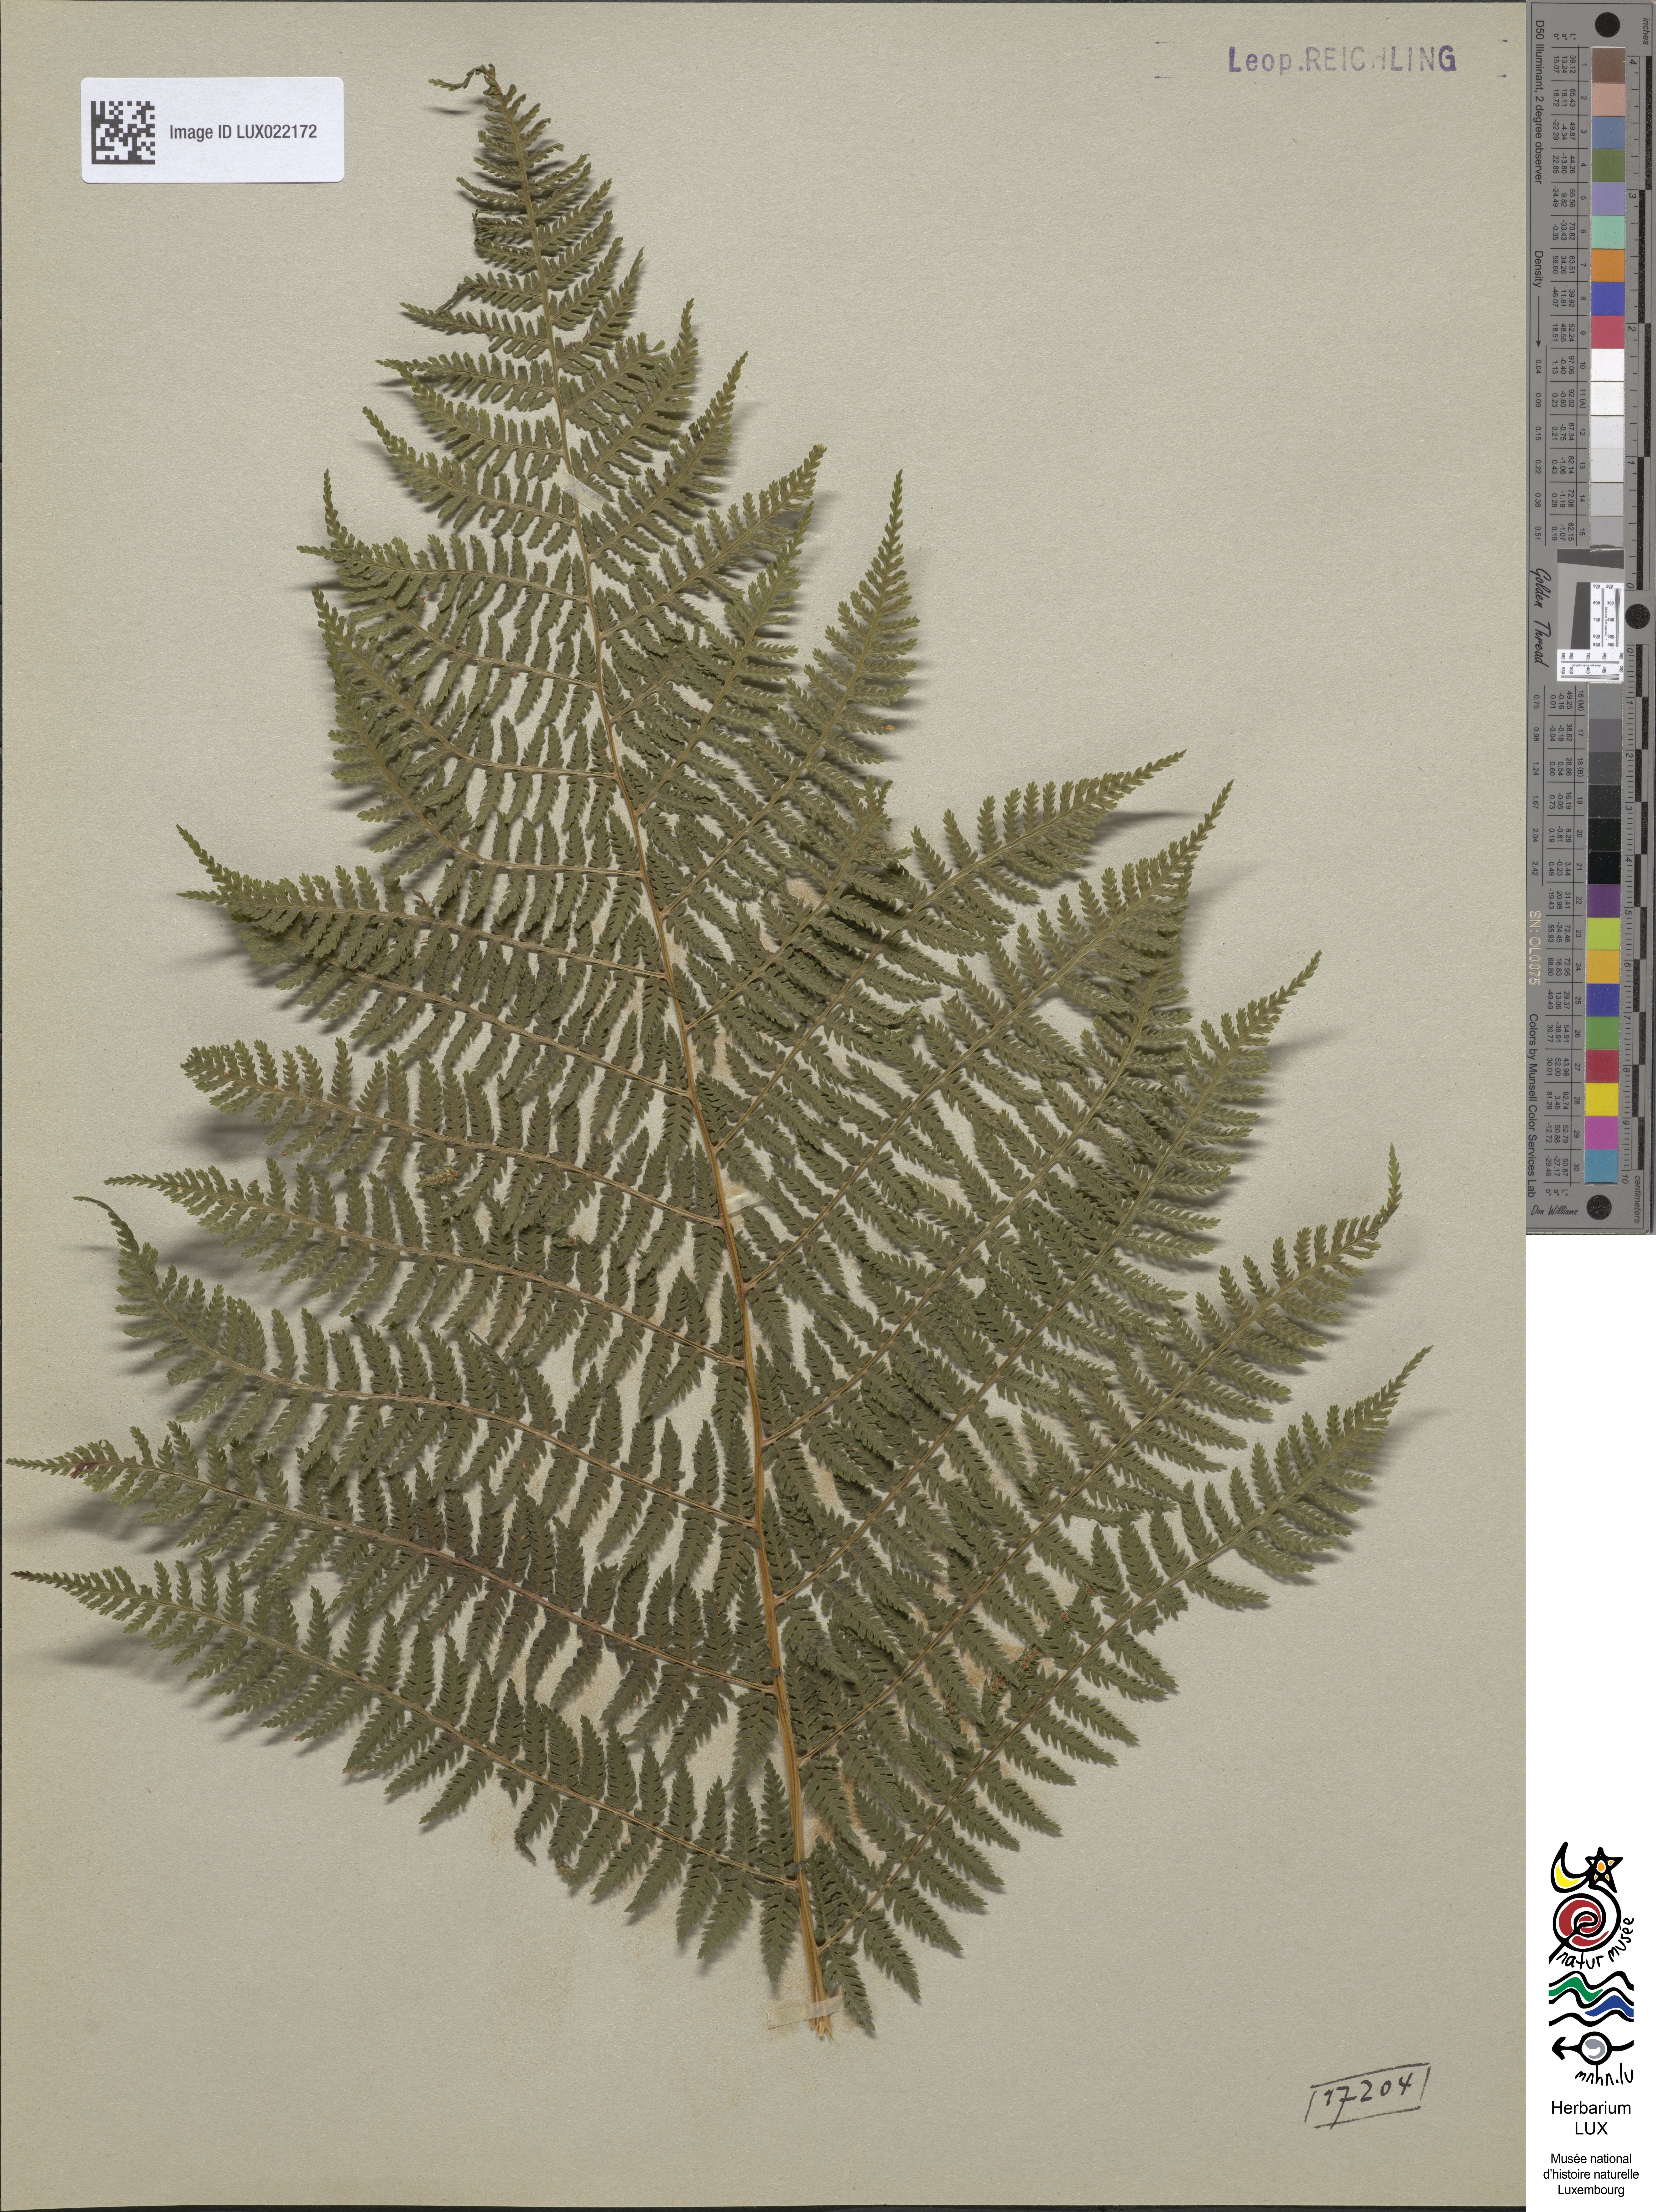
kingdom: Plantae
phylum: Tracheophyta
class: Polypodiopsida
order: Polypodiales
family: Athyriaceae
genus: Athyrium
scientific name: Athyrium filix-femina
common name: Lady fern
